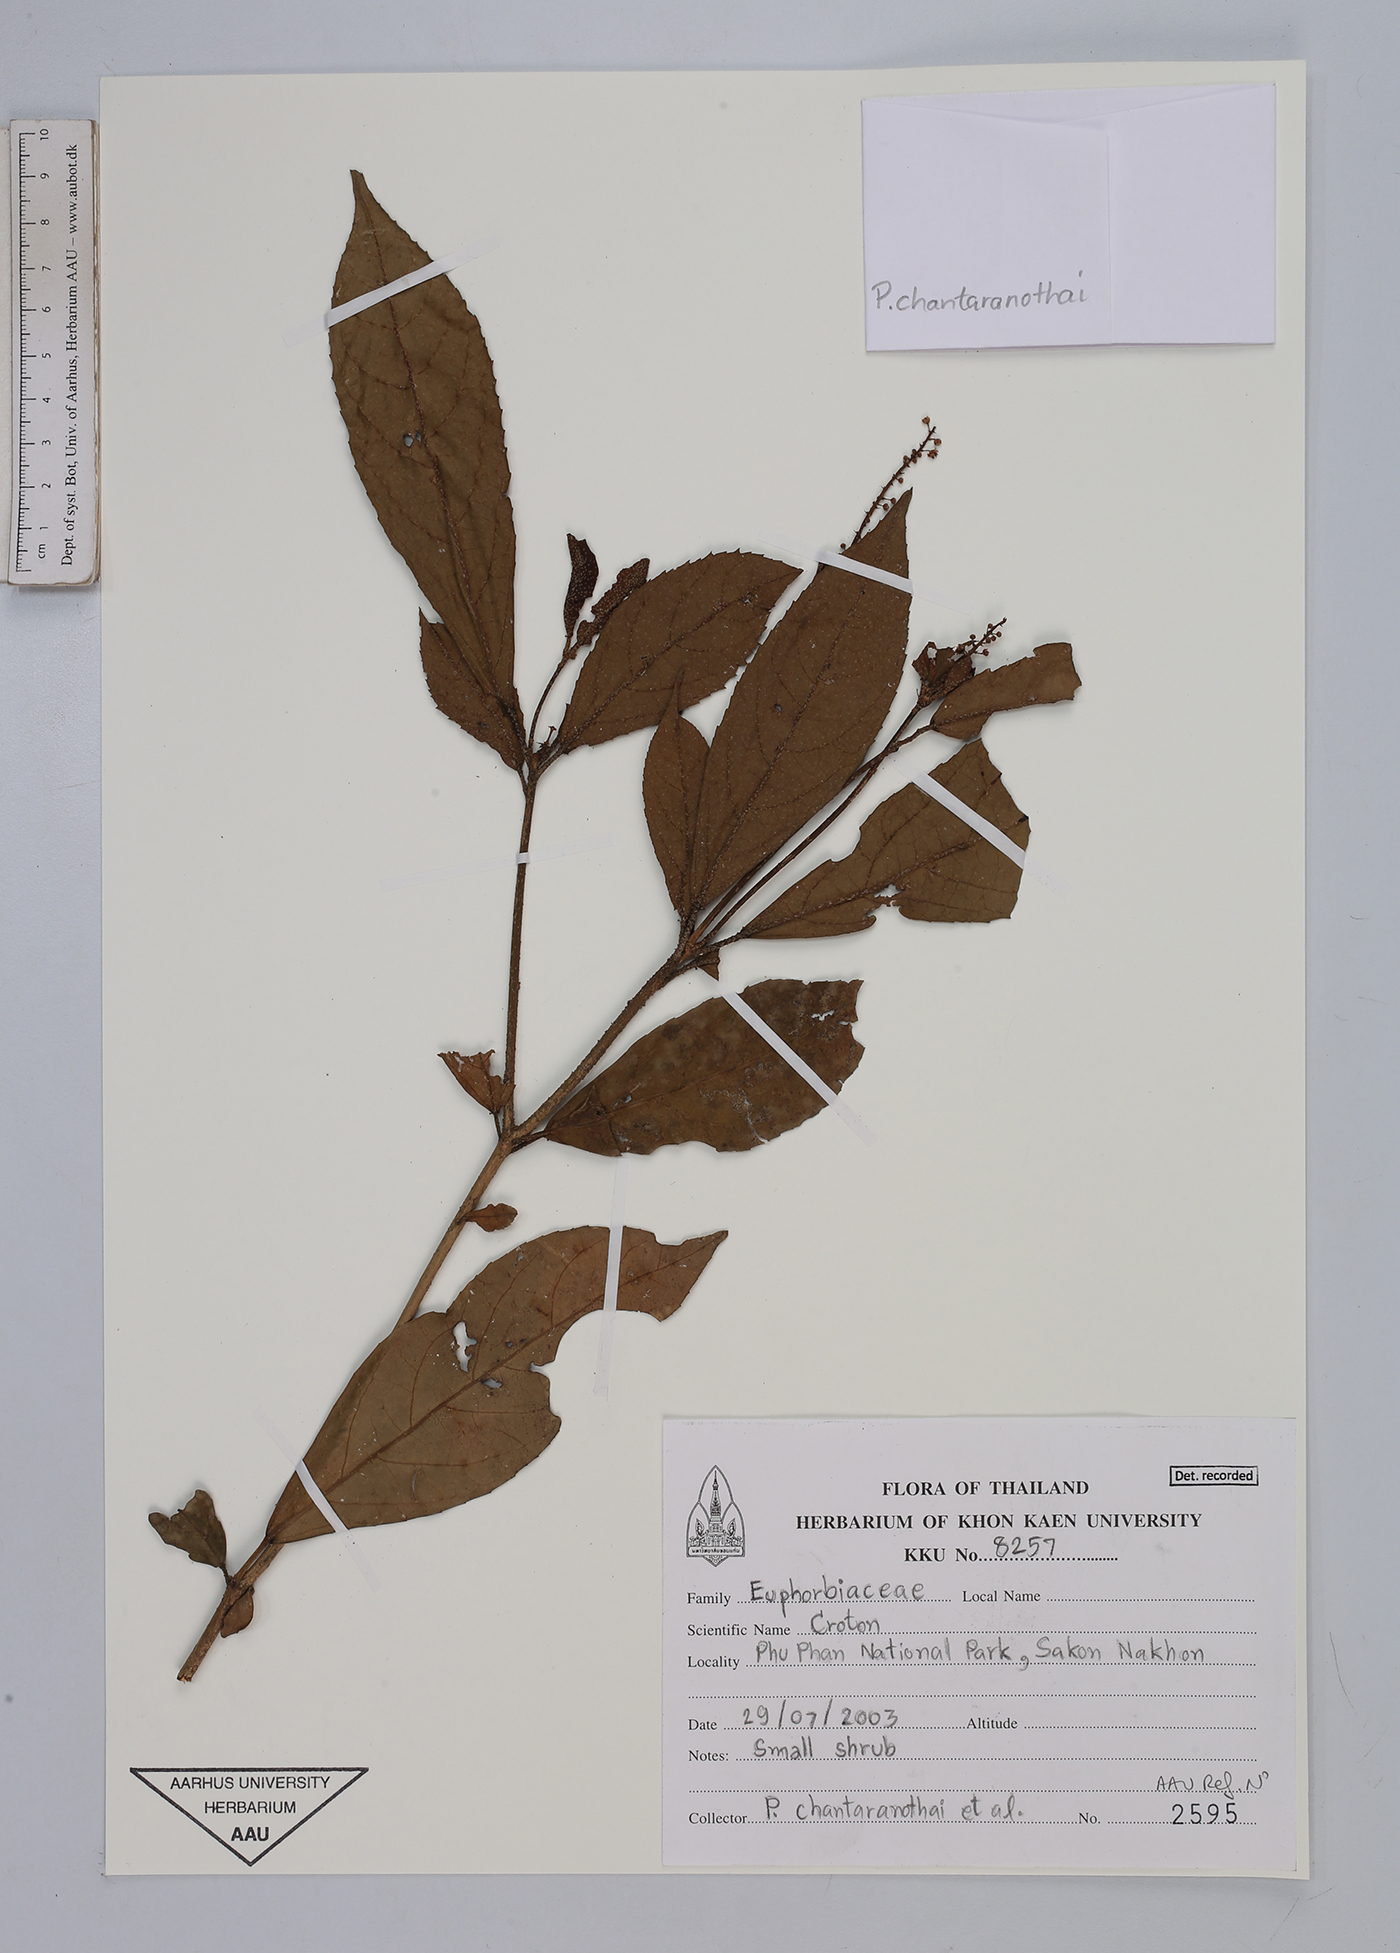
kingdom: Plantae
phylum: Tracheophyta
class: Magnoliopsida
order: Malpighiales
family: Euphorbiaceae
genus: Croton
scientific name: Croton
